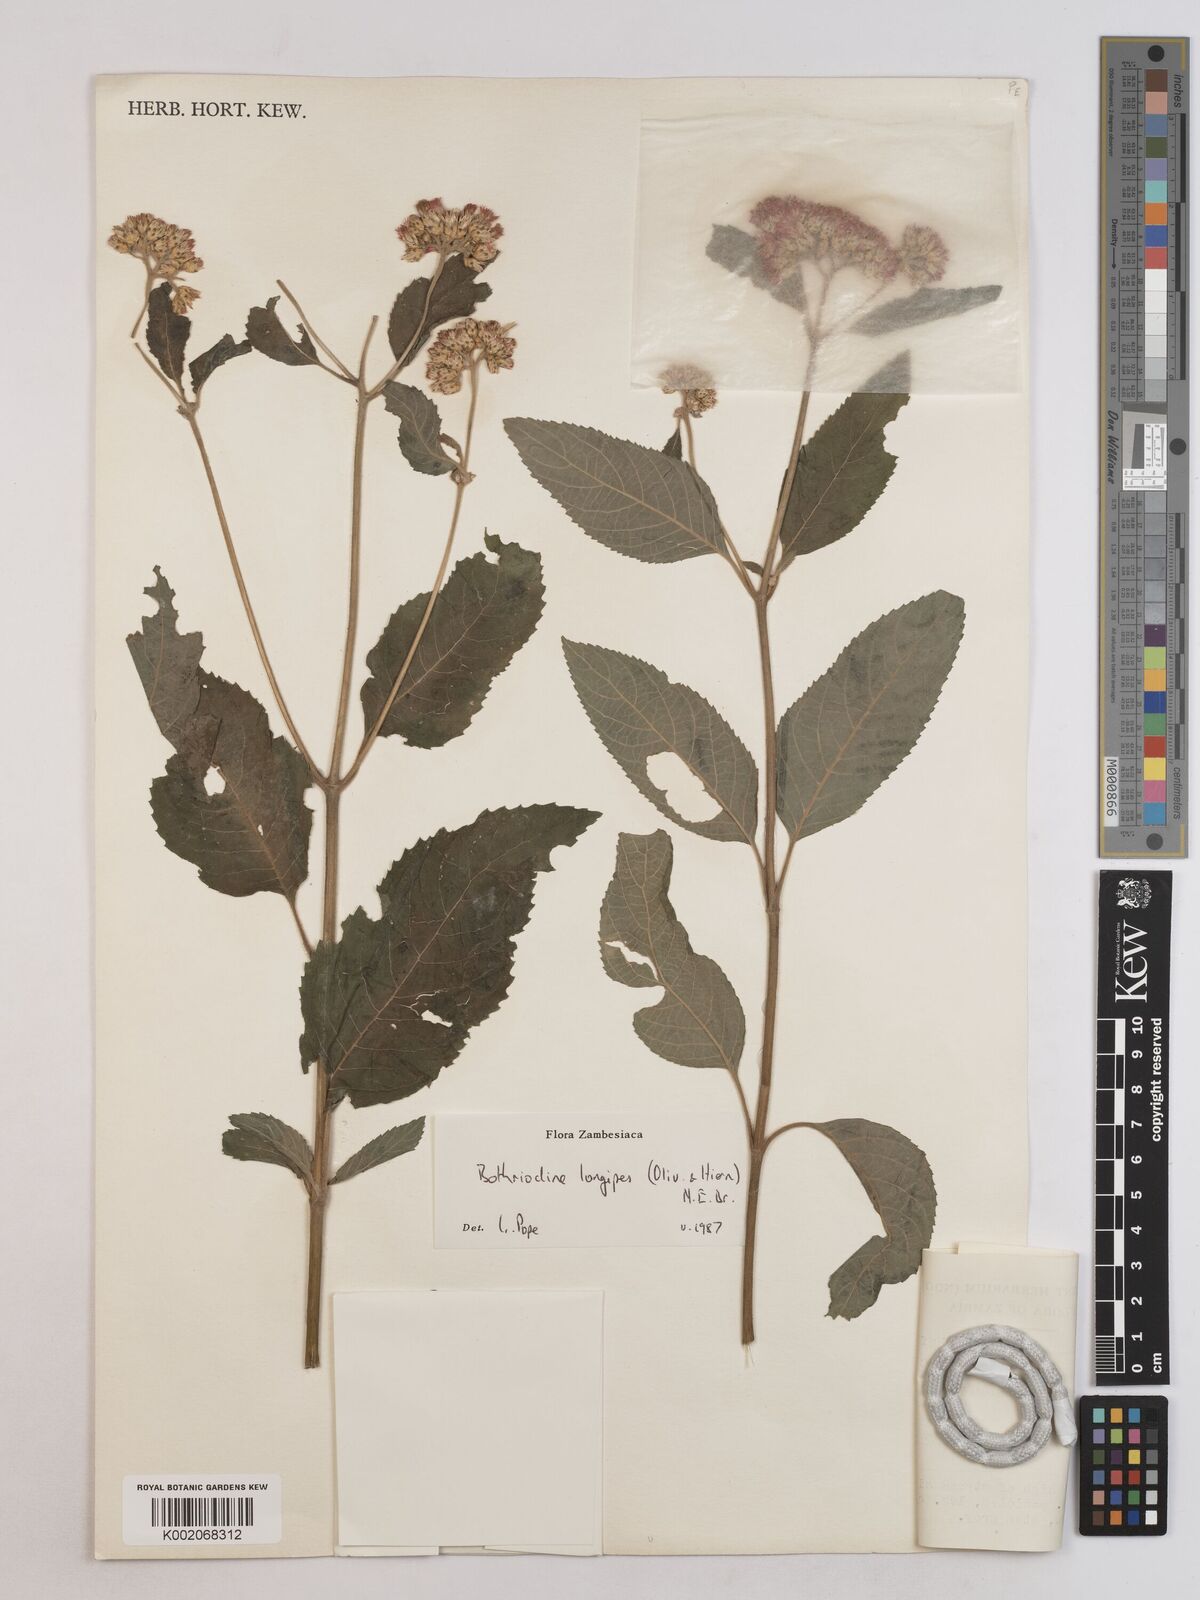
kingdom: Plantae
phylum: Tracheophyta
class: Magnoliopsida
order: Asterales
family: Asteraceae
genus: Bothriocline
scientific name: Bothriocline longipes
